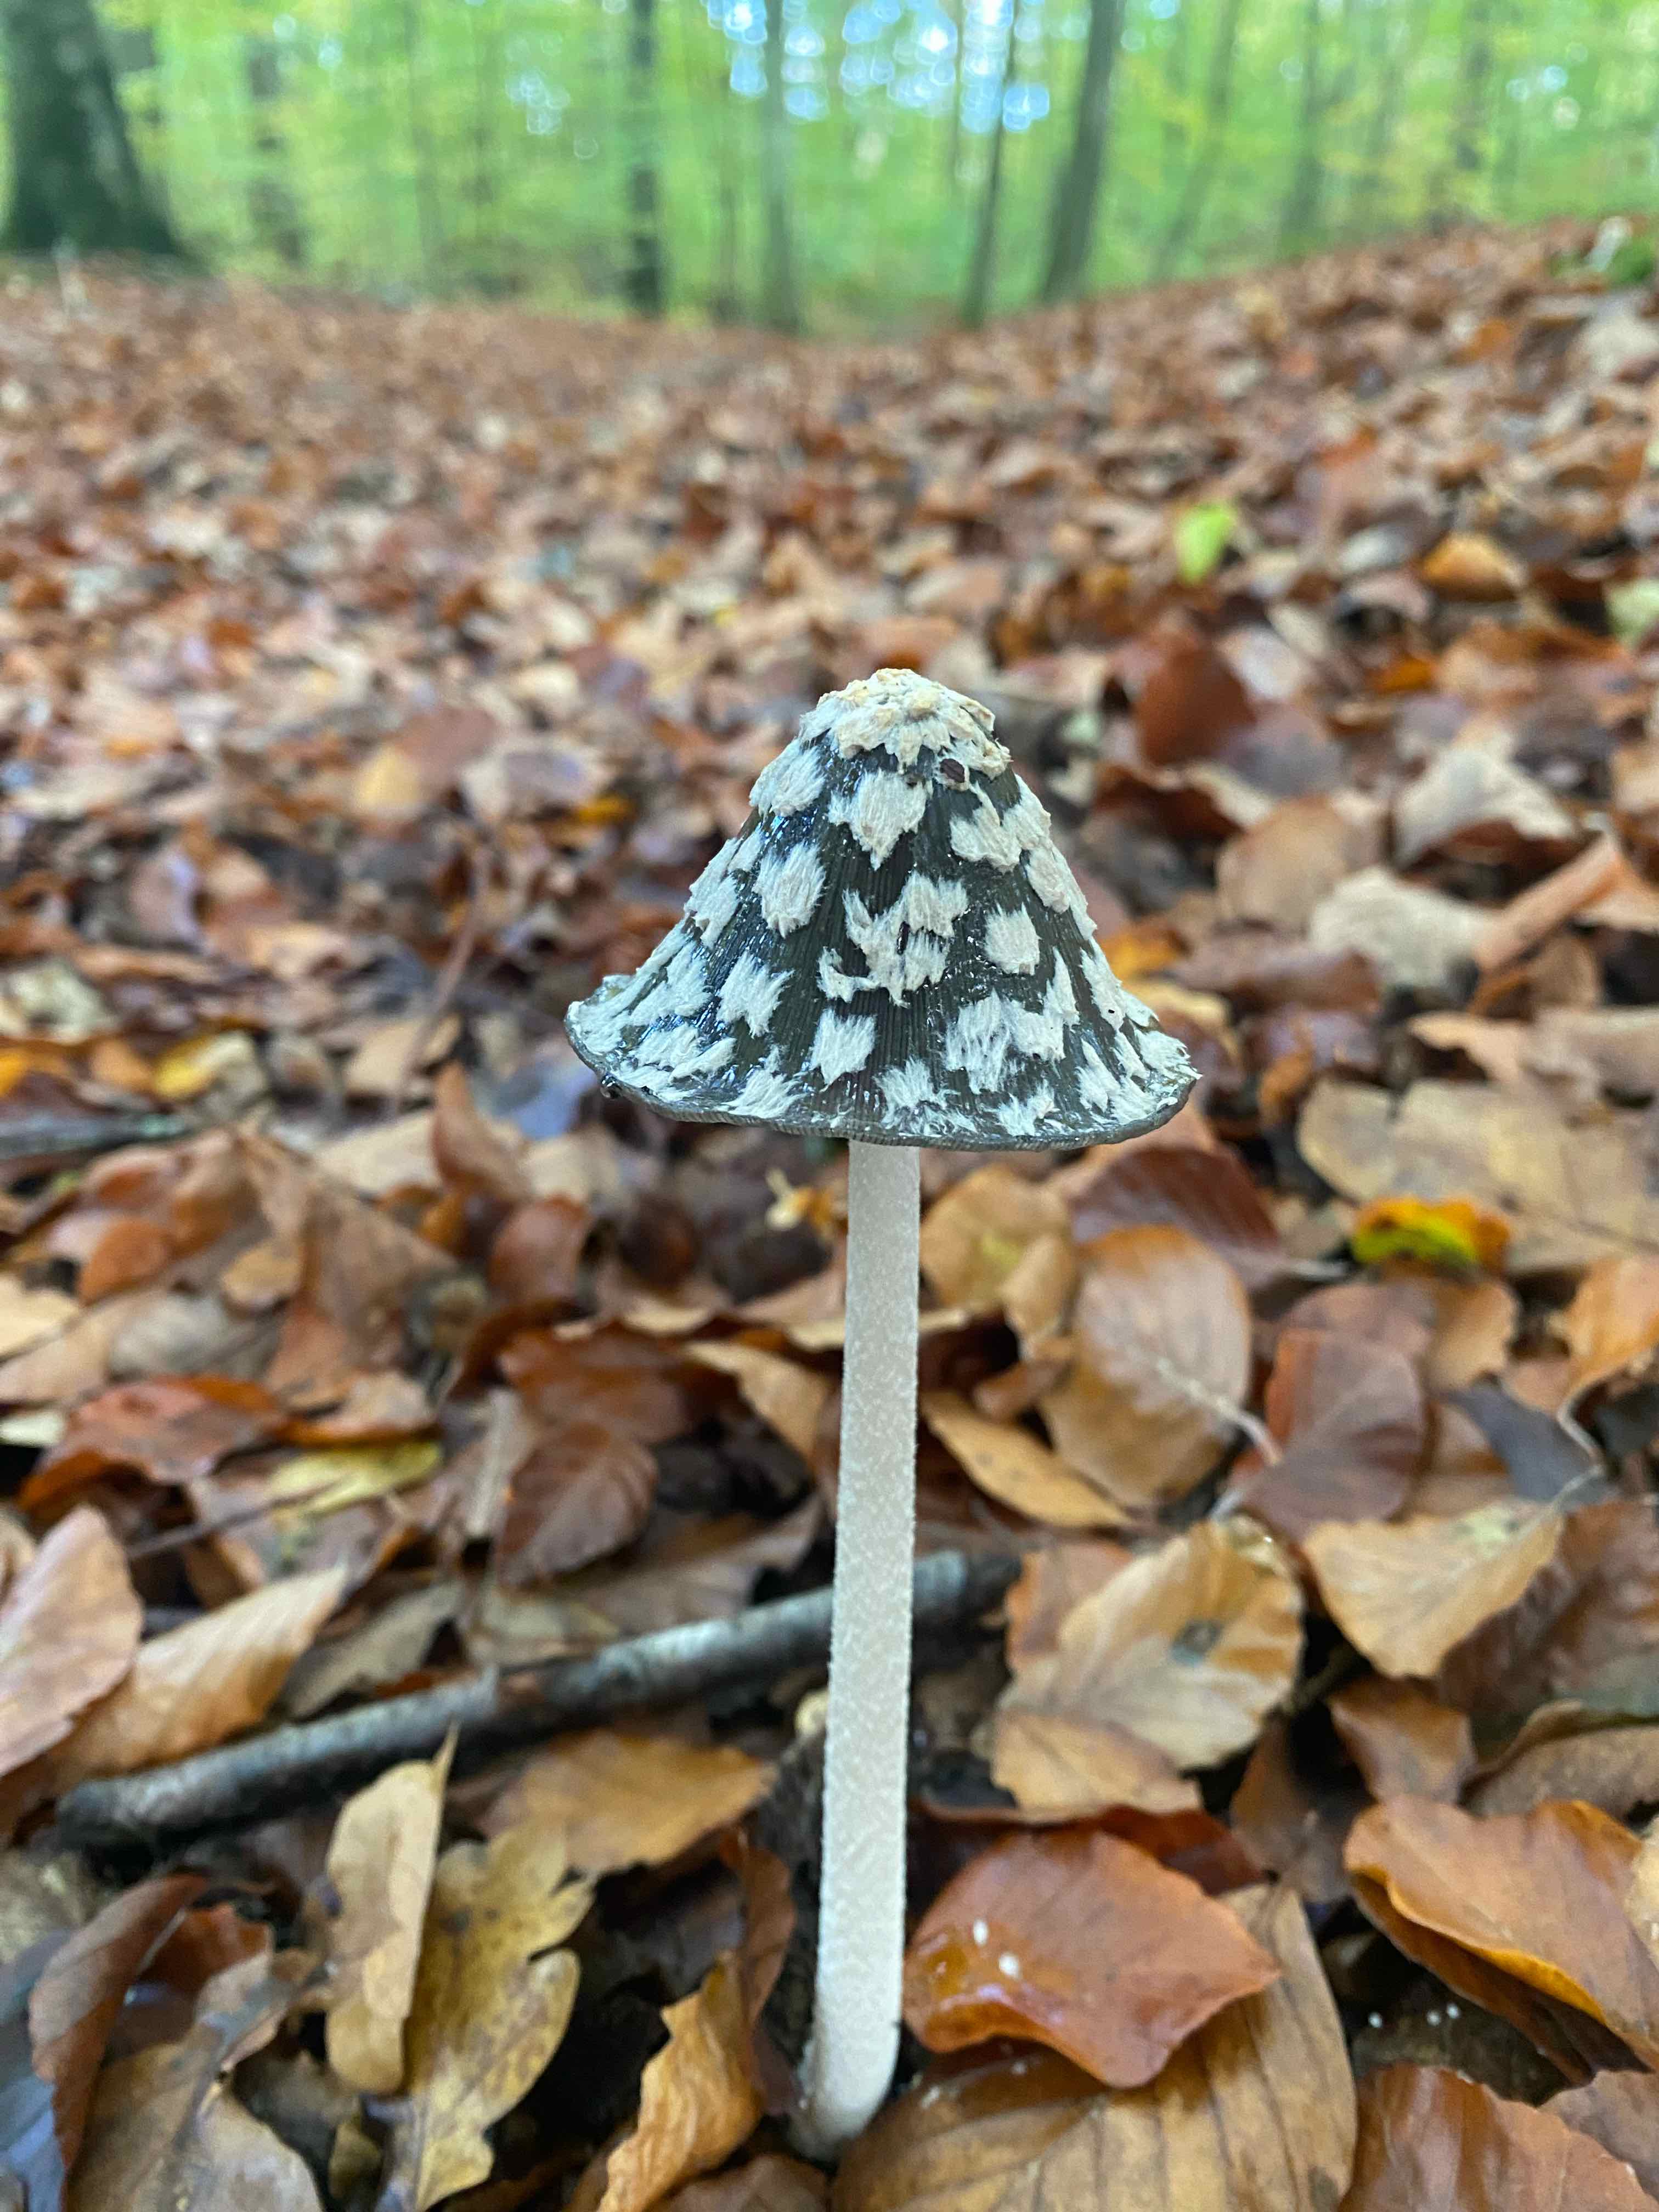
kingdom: Fungi
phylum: Basidiomycota
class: Agaricomycetes
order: Agaricales
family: Psathyrellaceae
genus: Coprinopsis
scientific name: Coprinopsis picacea
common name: skade-blækhat
